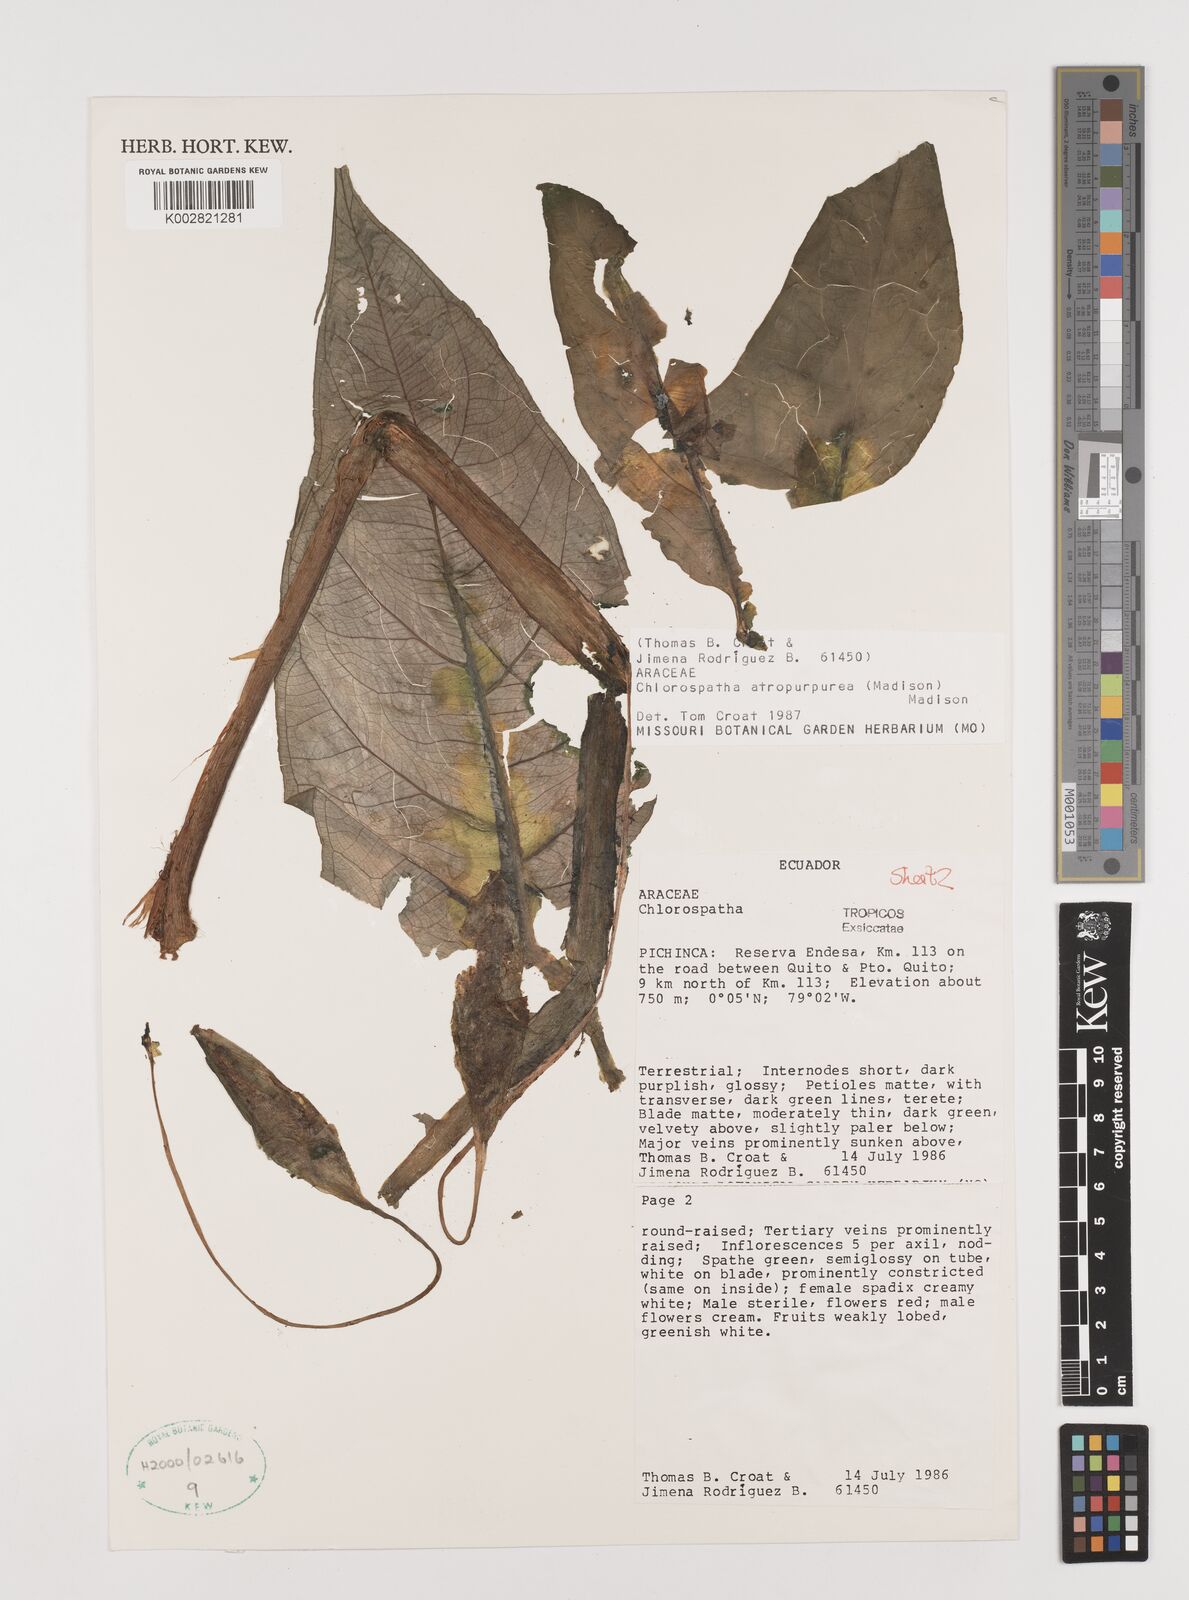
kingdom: Plantae
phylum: Tracheophyta
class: Liliopsida
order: Alismatales
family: Araceae
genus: Chlorospatha
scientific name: Chlorospatha atropurpurea
